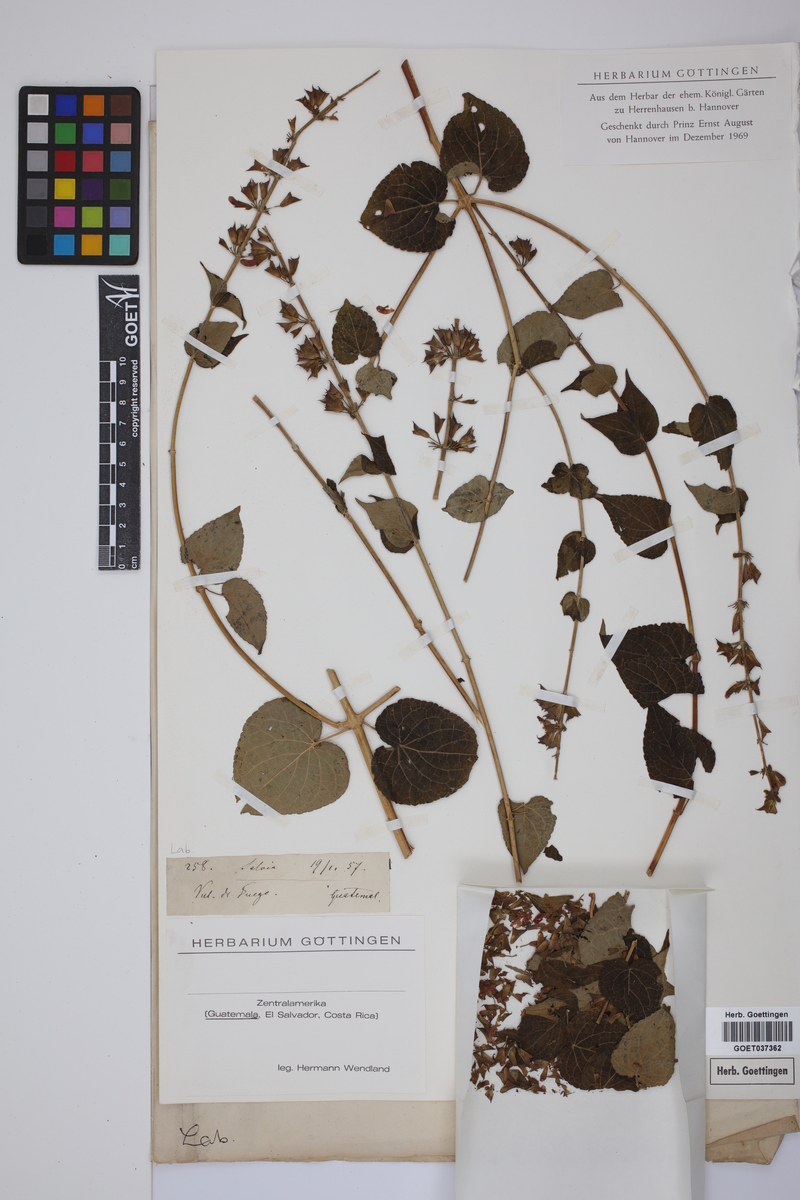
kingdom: Plantae
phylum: Tracheophyta
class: Magnoliopsida
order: Lamiales
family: Lamiaceae
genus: Salvia
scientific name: Salvia
